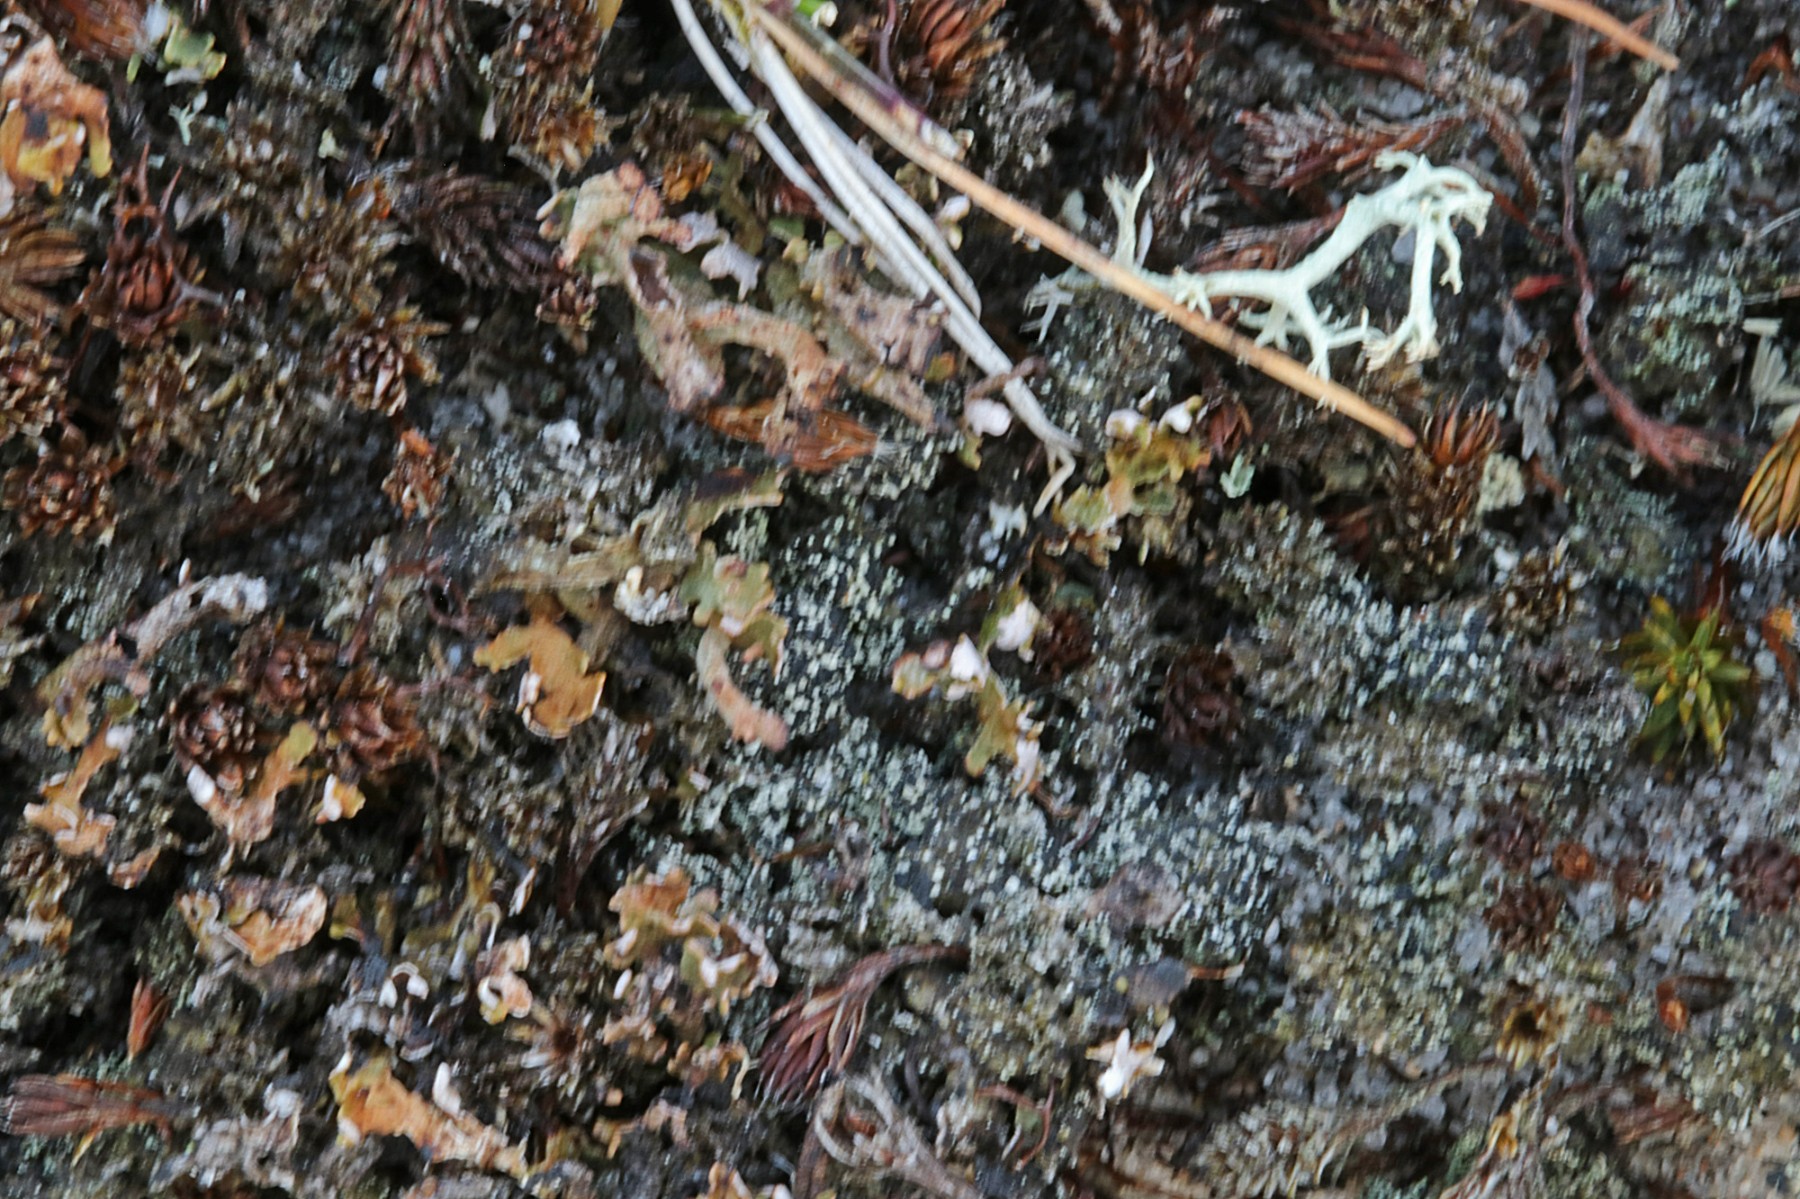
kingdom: Fungi
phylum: Ascomycota
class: Lecanoromycetes
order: Lecanorales
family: Byssolomataceae
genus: Micarea
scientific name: Micarea lignaria
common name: tørve-knaplav
